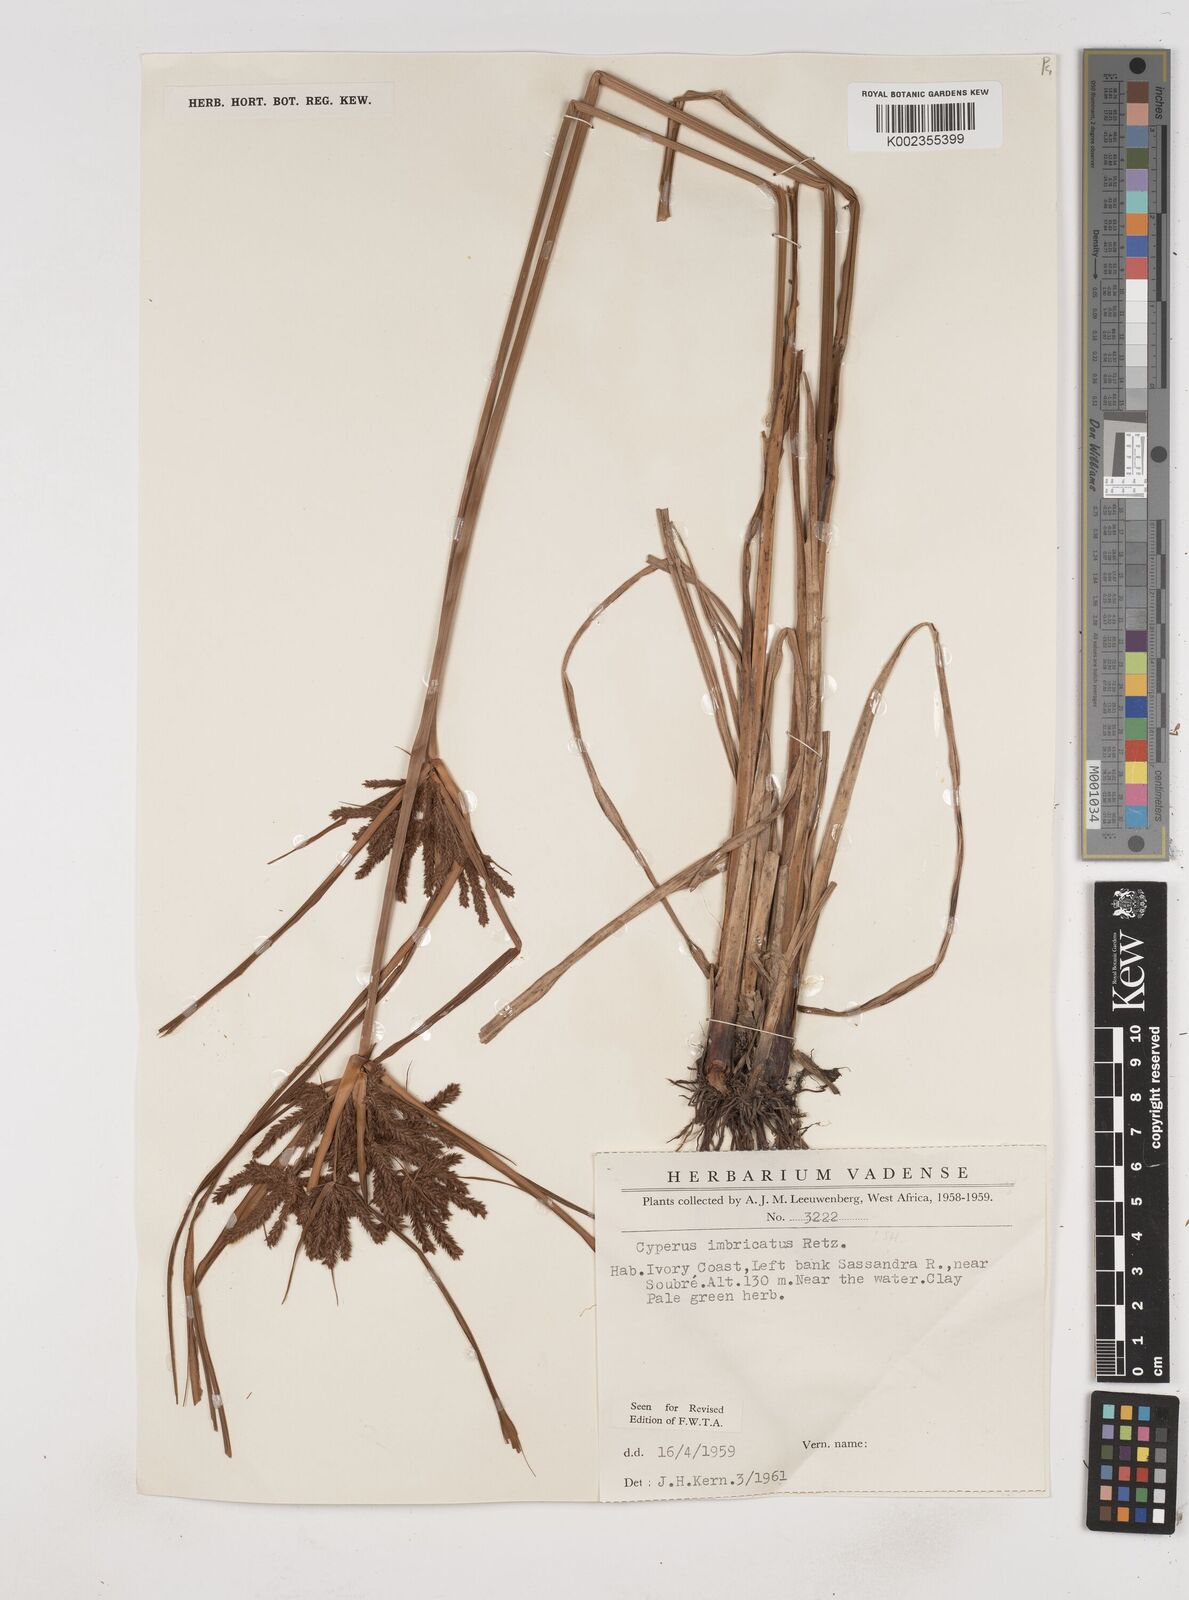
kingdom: Plantae
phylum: Tracheophyta
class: Liliopsida
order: Poales
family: Cyperaceae
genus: Cyperus
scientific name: Cyperus imbricatus
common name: Shingle flatsedge
